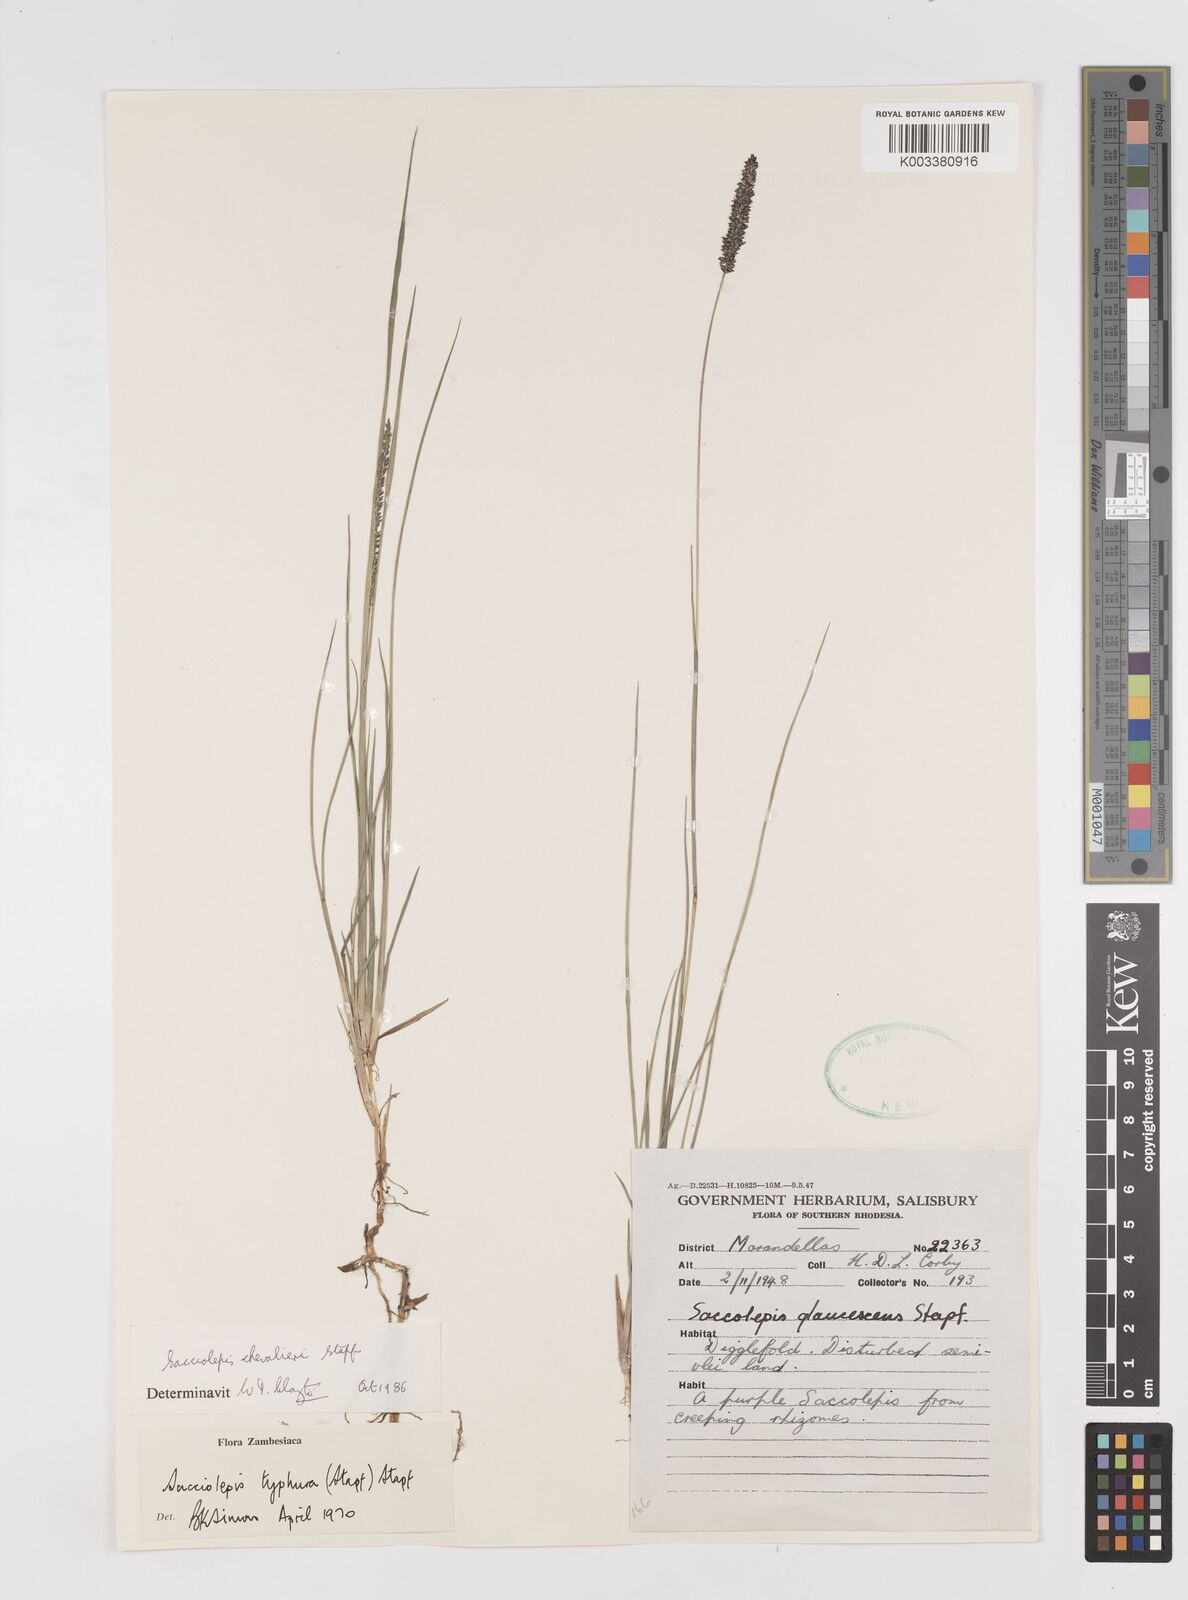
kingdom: Plantae
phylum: Tracheophyta
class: Liliopsida
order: Poales
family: Poaceae
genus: Sacciolepis
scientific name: Sacciolepis chevalieri
